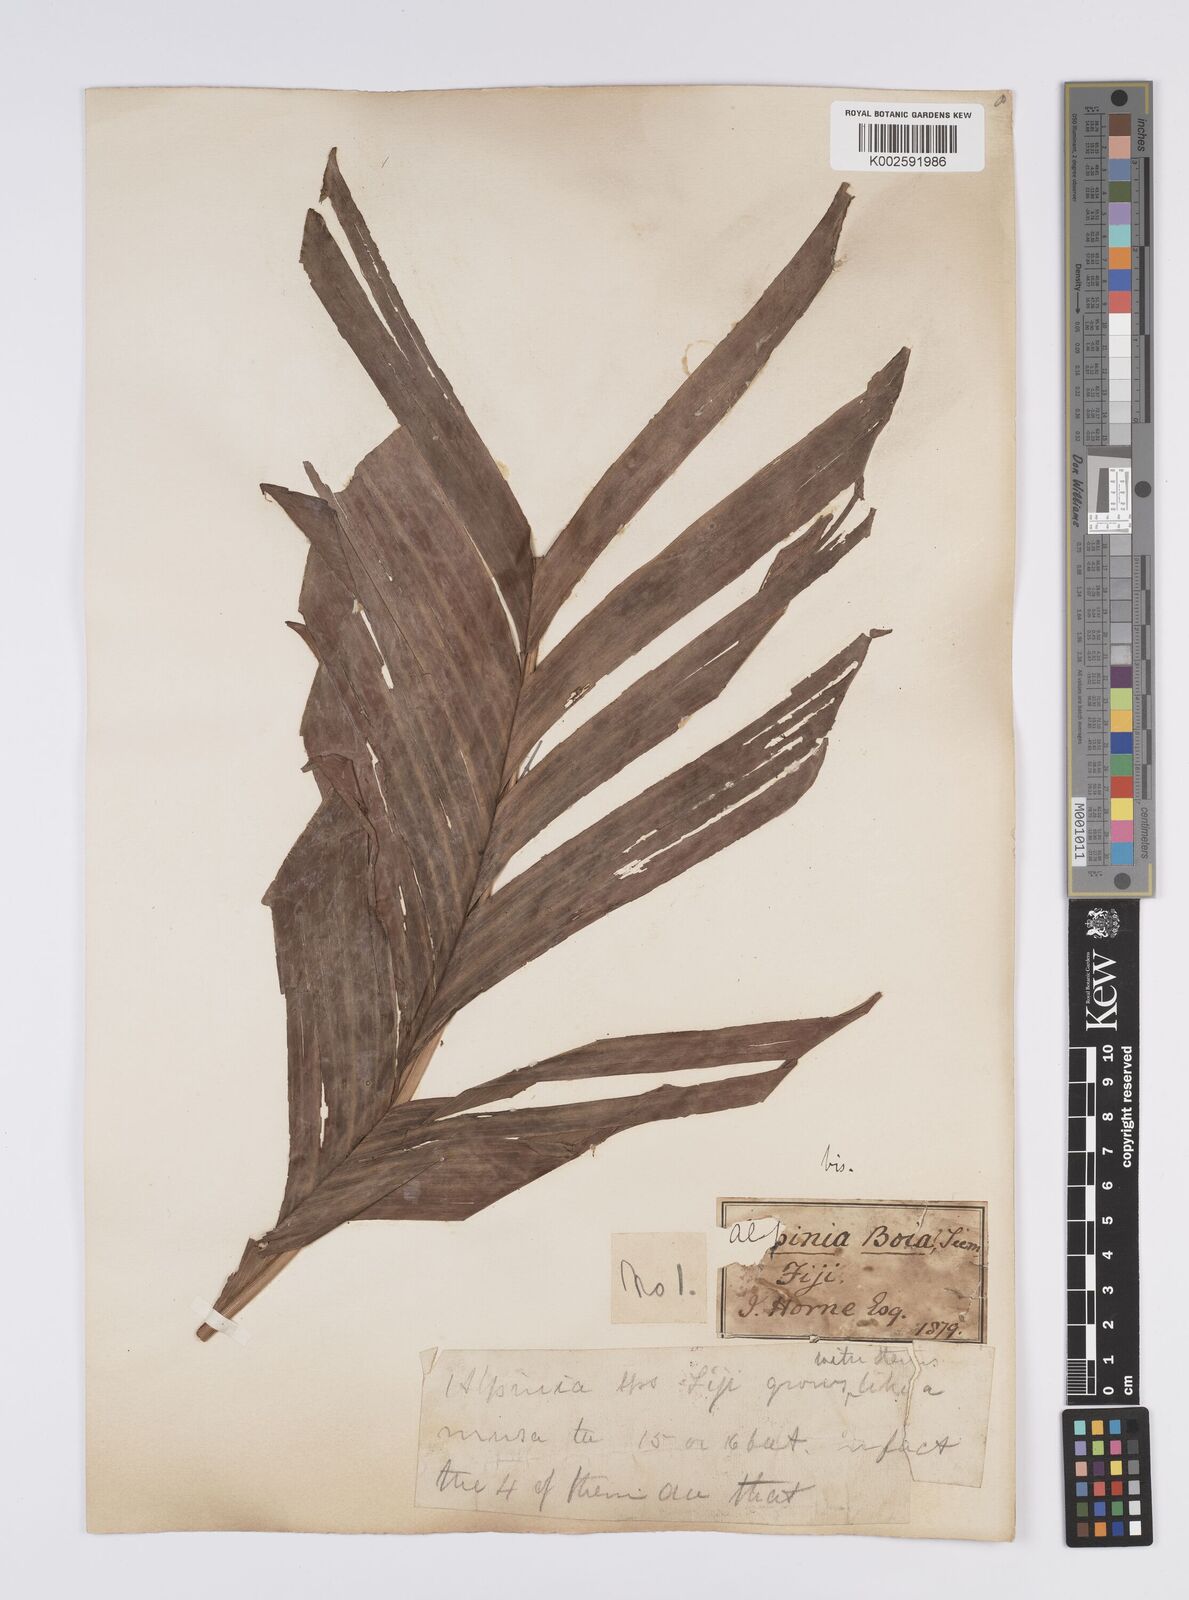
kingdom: Plantae
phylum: Tracheophyta
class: Liliopsida
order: Zingiberales
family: Zingiberaceae
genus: Alpinia
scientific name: Alpinia boia
